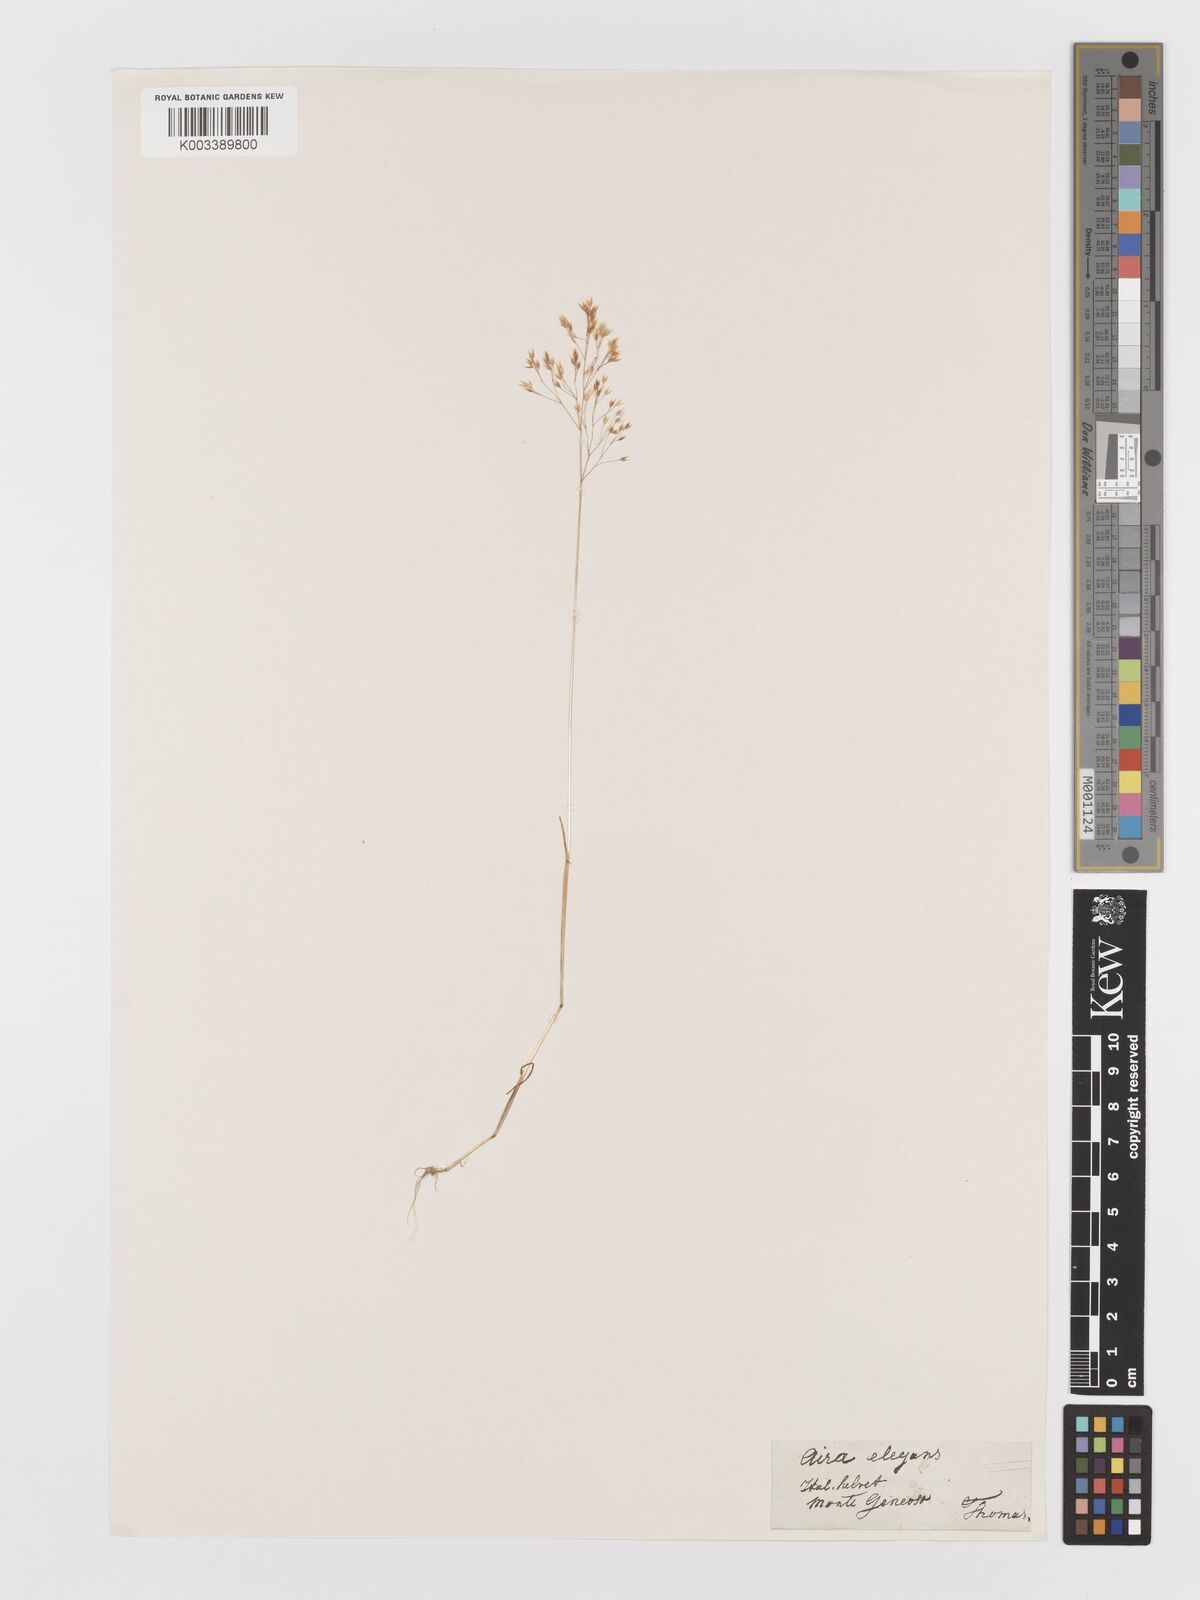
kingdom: Plantae
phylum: Tracheophyta
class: Liliopsida
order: Poales
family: Poaceae
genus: Aira
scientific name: Aira elegans
